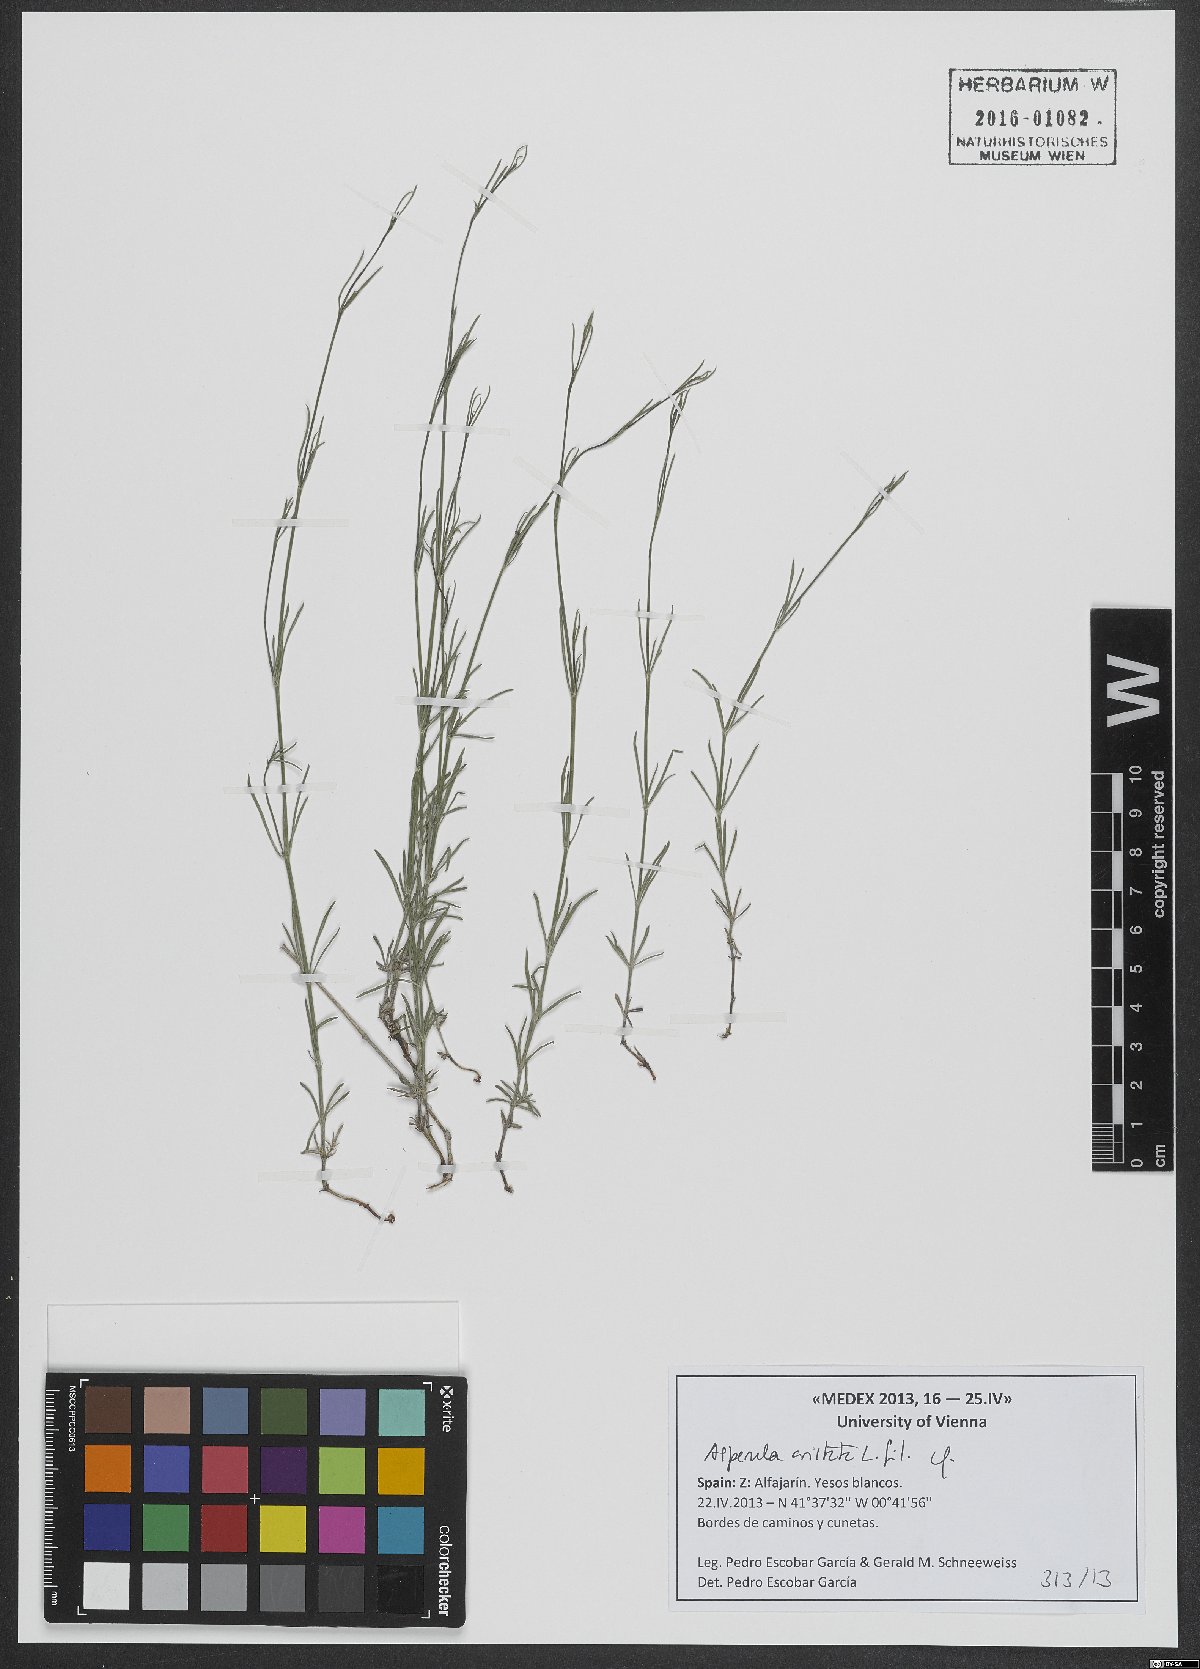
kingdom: Plantae
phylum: Tracheophyta
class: Magnoliopsida
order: Gentianales
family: Rubiaceae
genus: Cynanchica
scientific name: Cynanchica aristata
